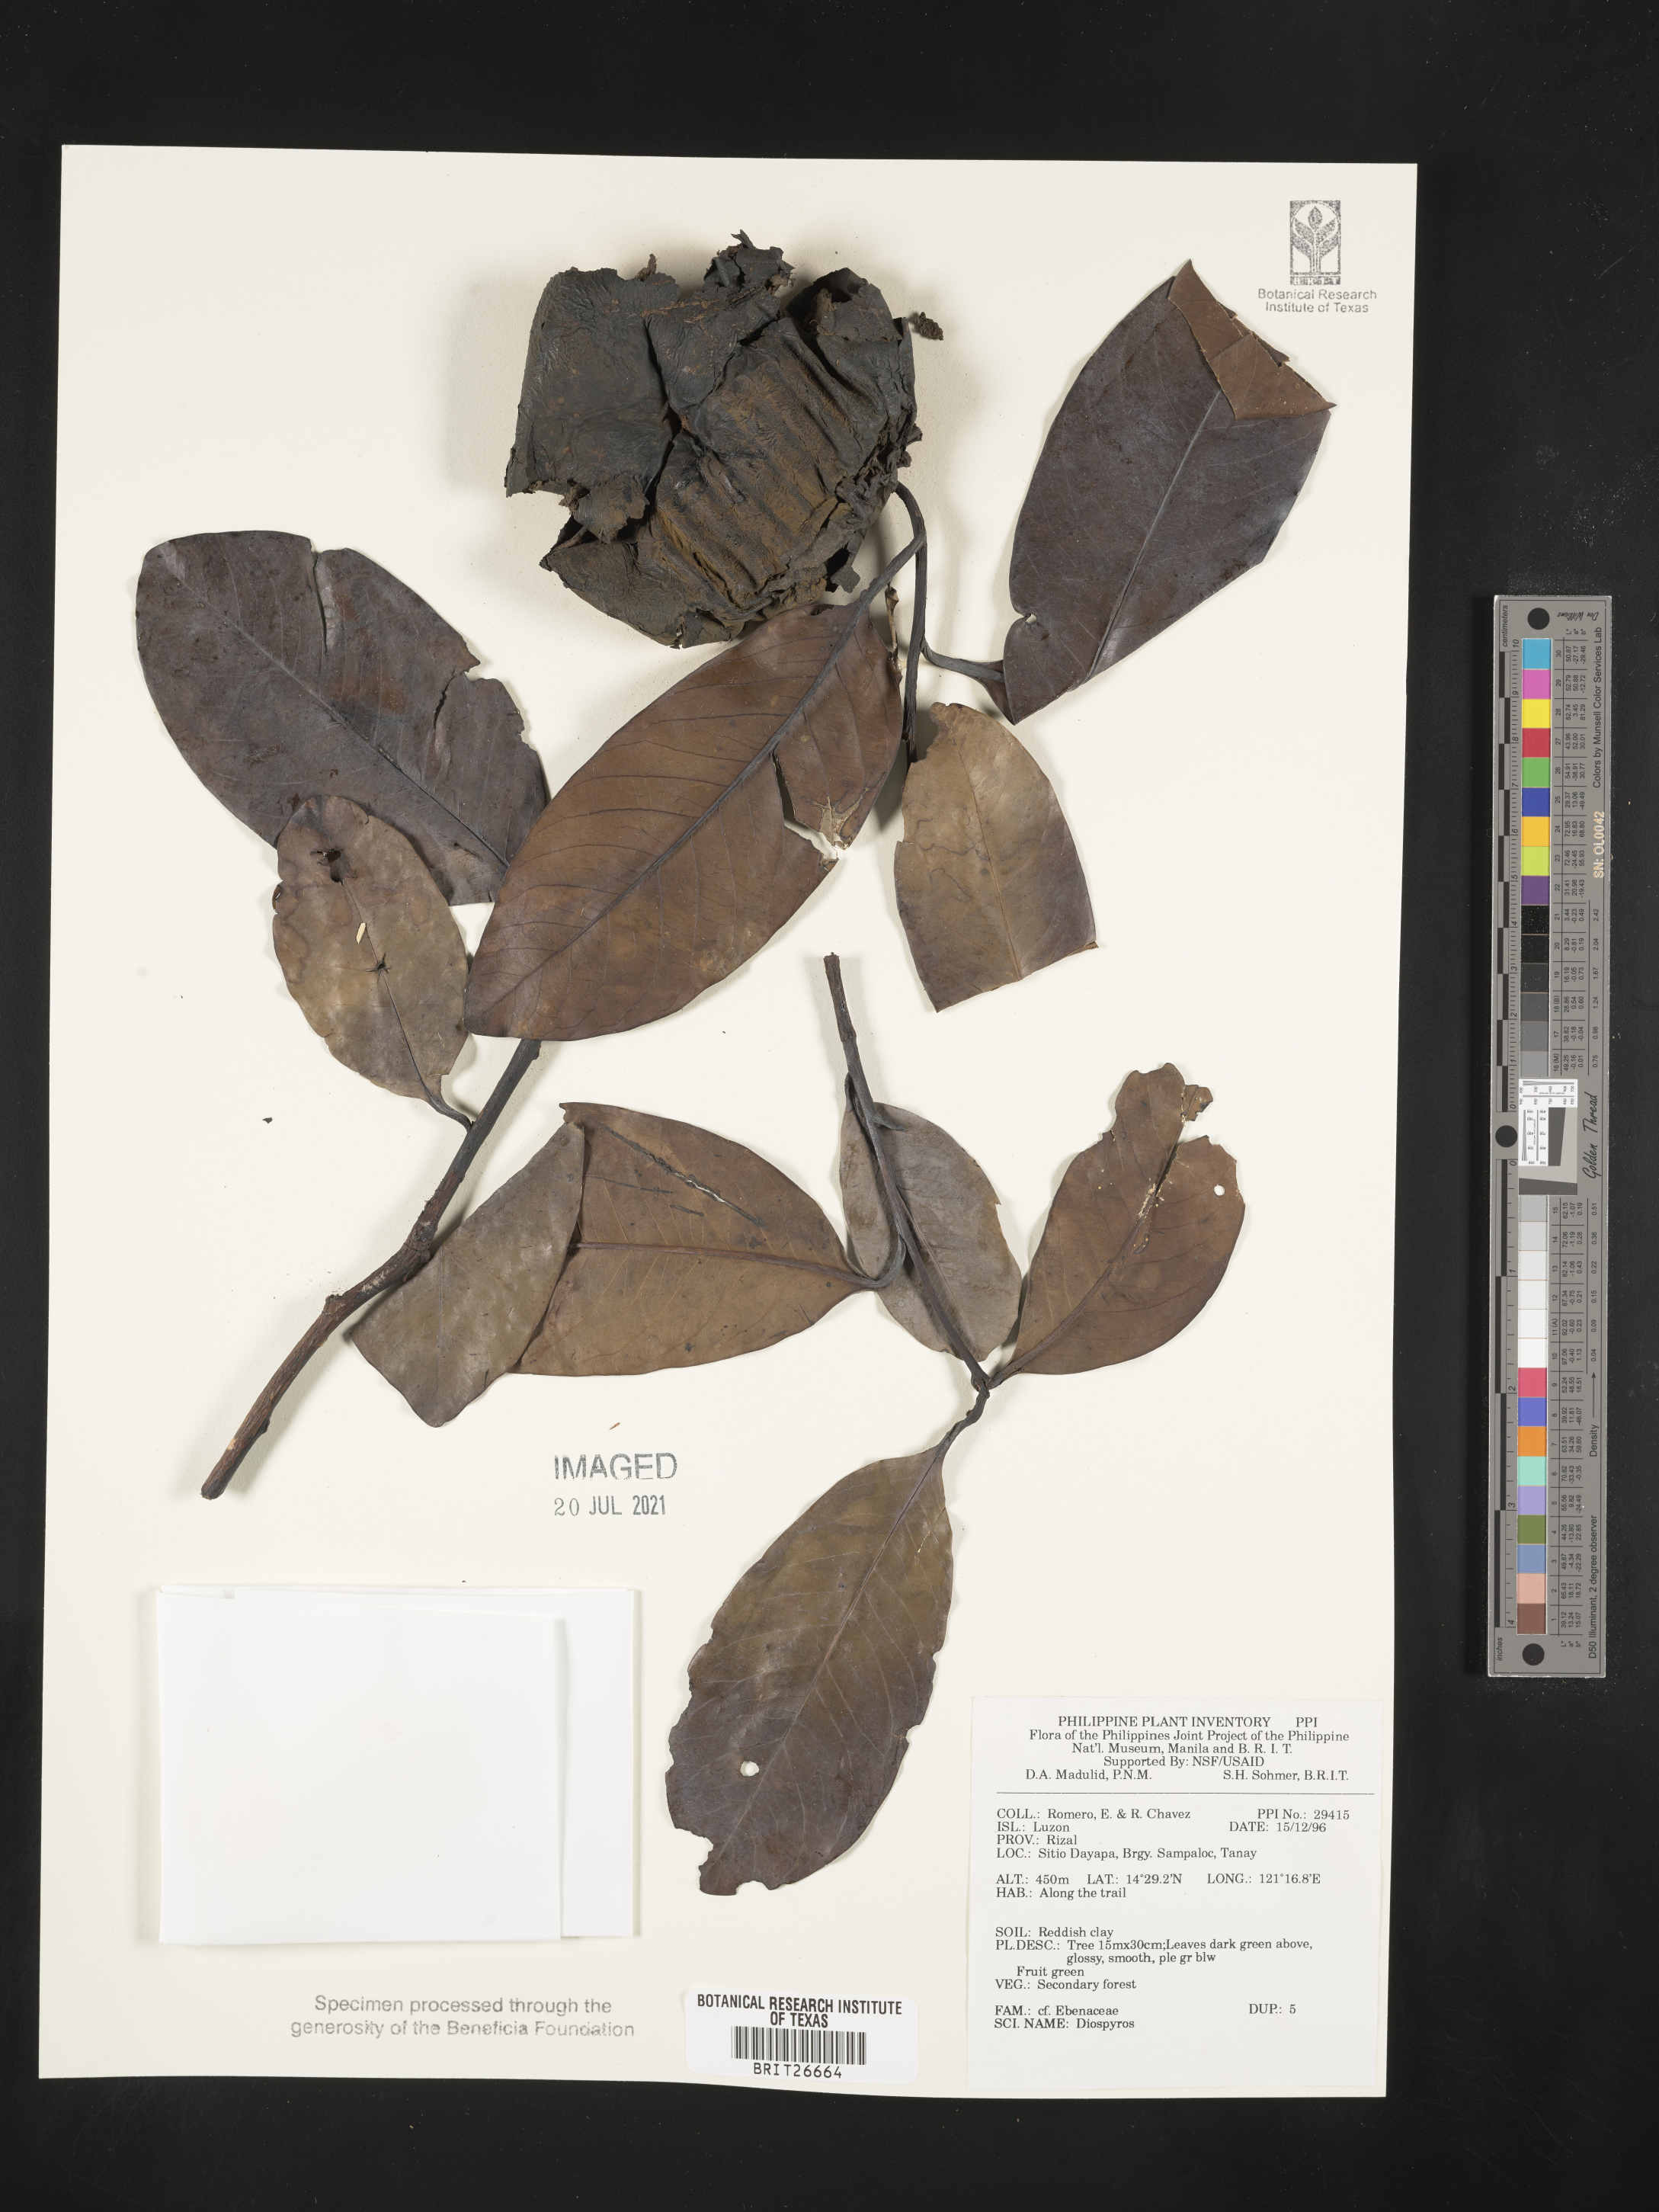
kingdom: Plantae
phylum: Tracheophyta
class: Magnoliopsida
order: Ericales
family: Ebenaceae
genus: Diospyros
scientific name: Diospyros
